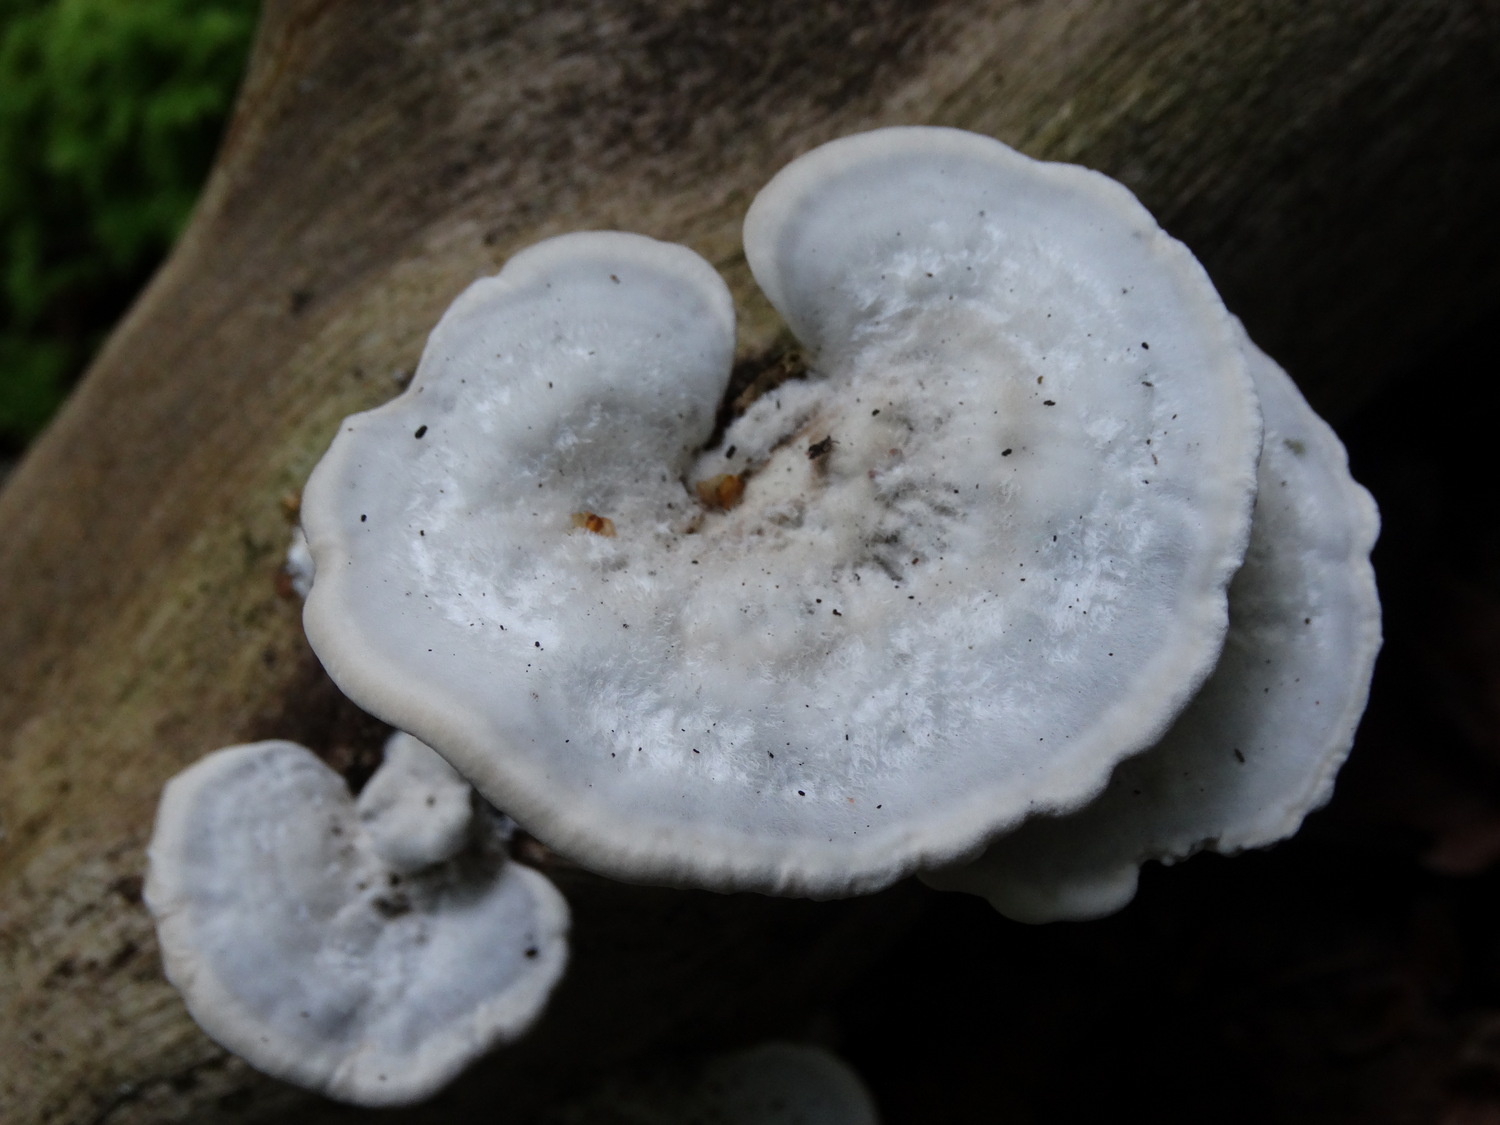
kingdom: Fungi
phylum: Basidiomycota
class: Agaricomycetes
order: Polyporales
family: Polyporaceae
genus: Trametes
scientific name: Trametes hirsuta
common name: håret læderporesvamp
